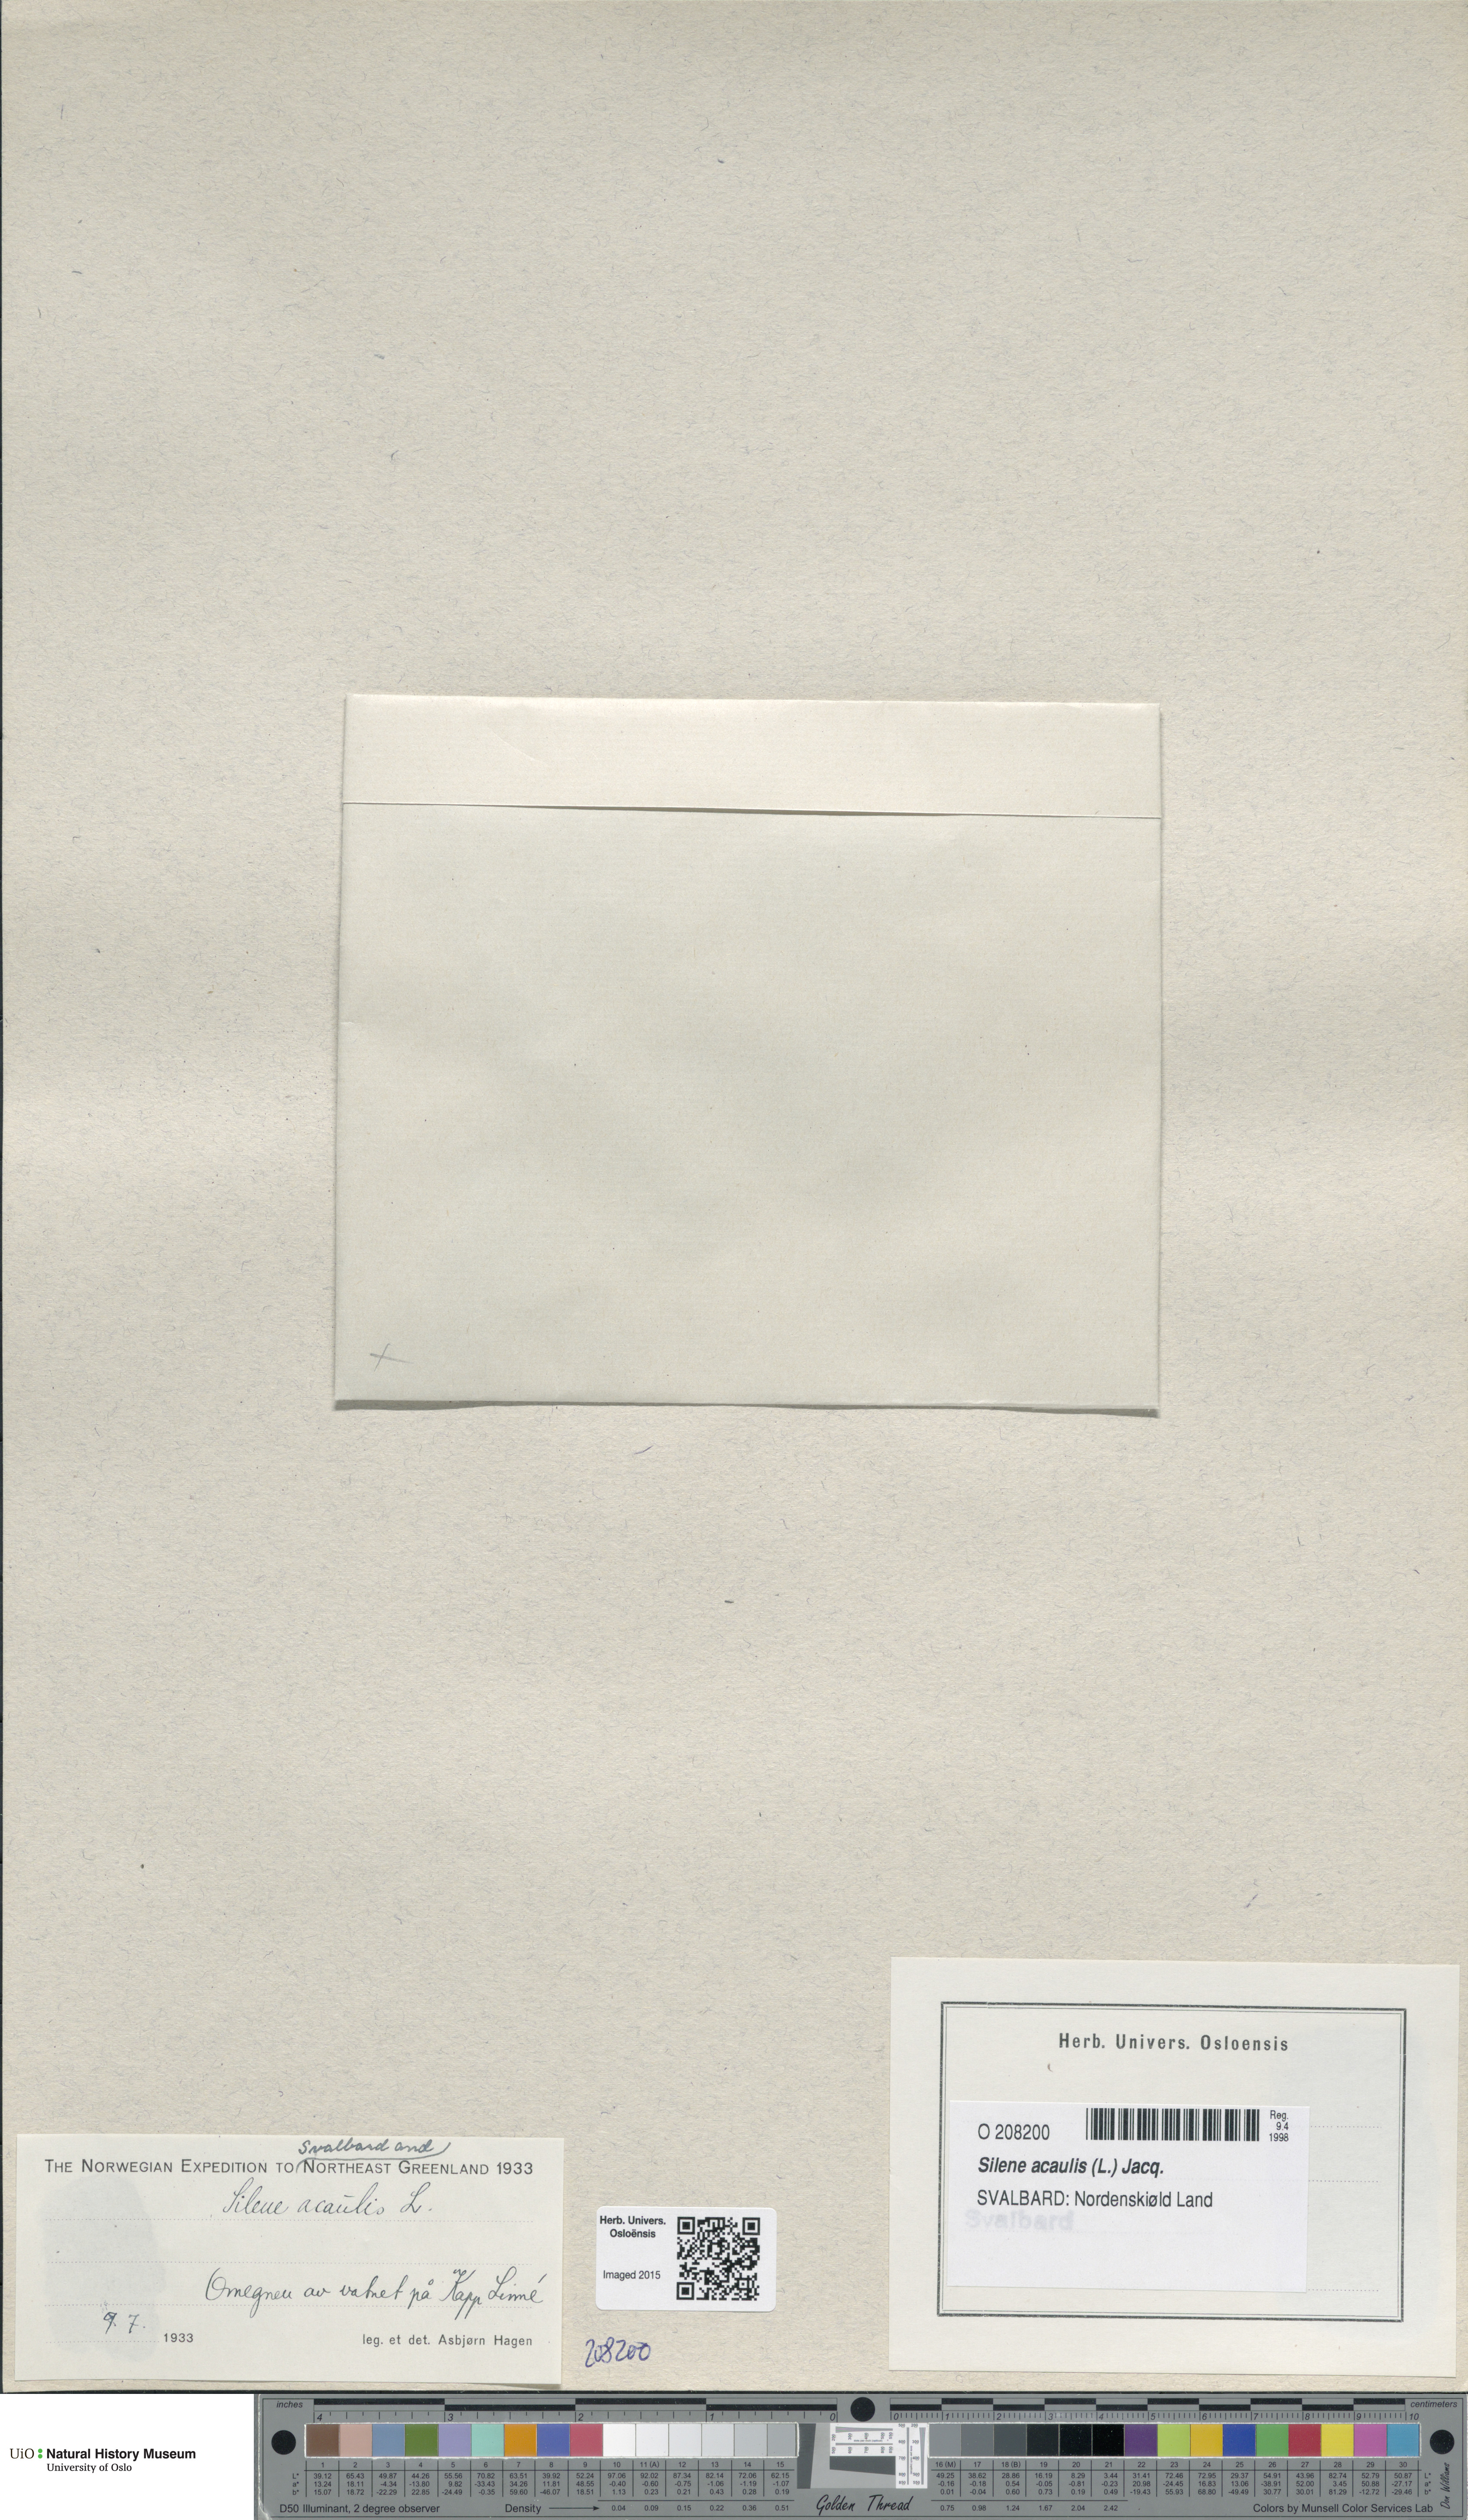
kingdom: Plantae
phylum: Tracheophyta
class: Magnoliopsida
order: Caryophyllales
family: Caryophyllaceae
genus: Silene
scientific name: Silene acaulis
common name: Moss campion
